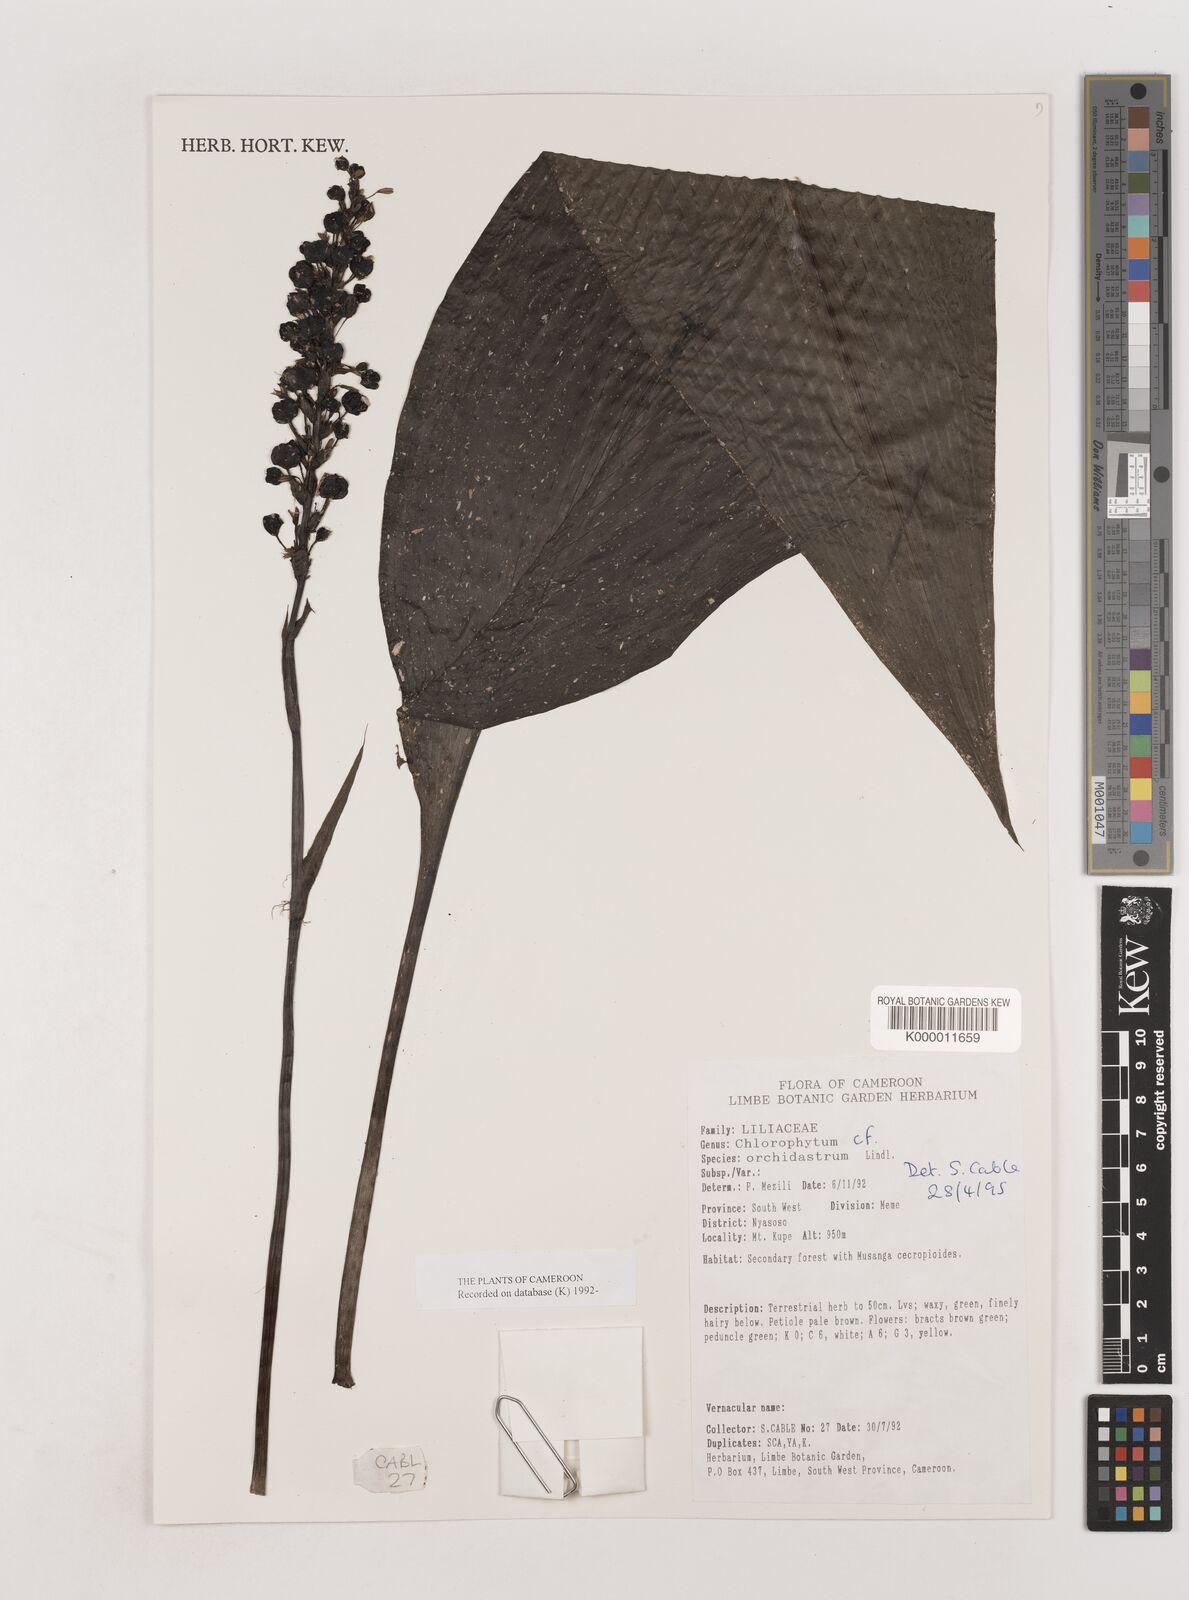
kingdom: Plantae
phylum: Tracheophyta
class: Liliopsida
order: Asparagales
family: Asparagaceae
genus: Chlorophytum
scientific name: Chlorophytum orchidastrum
